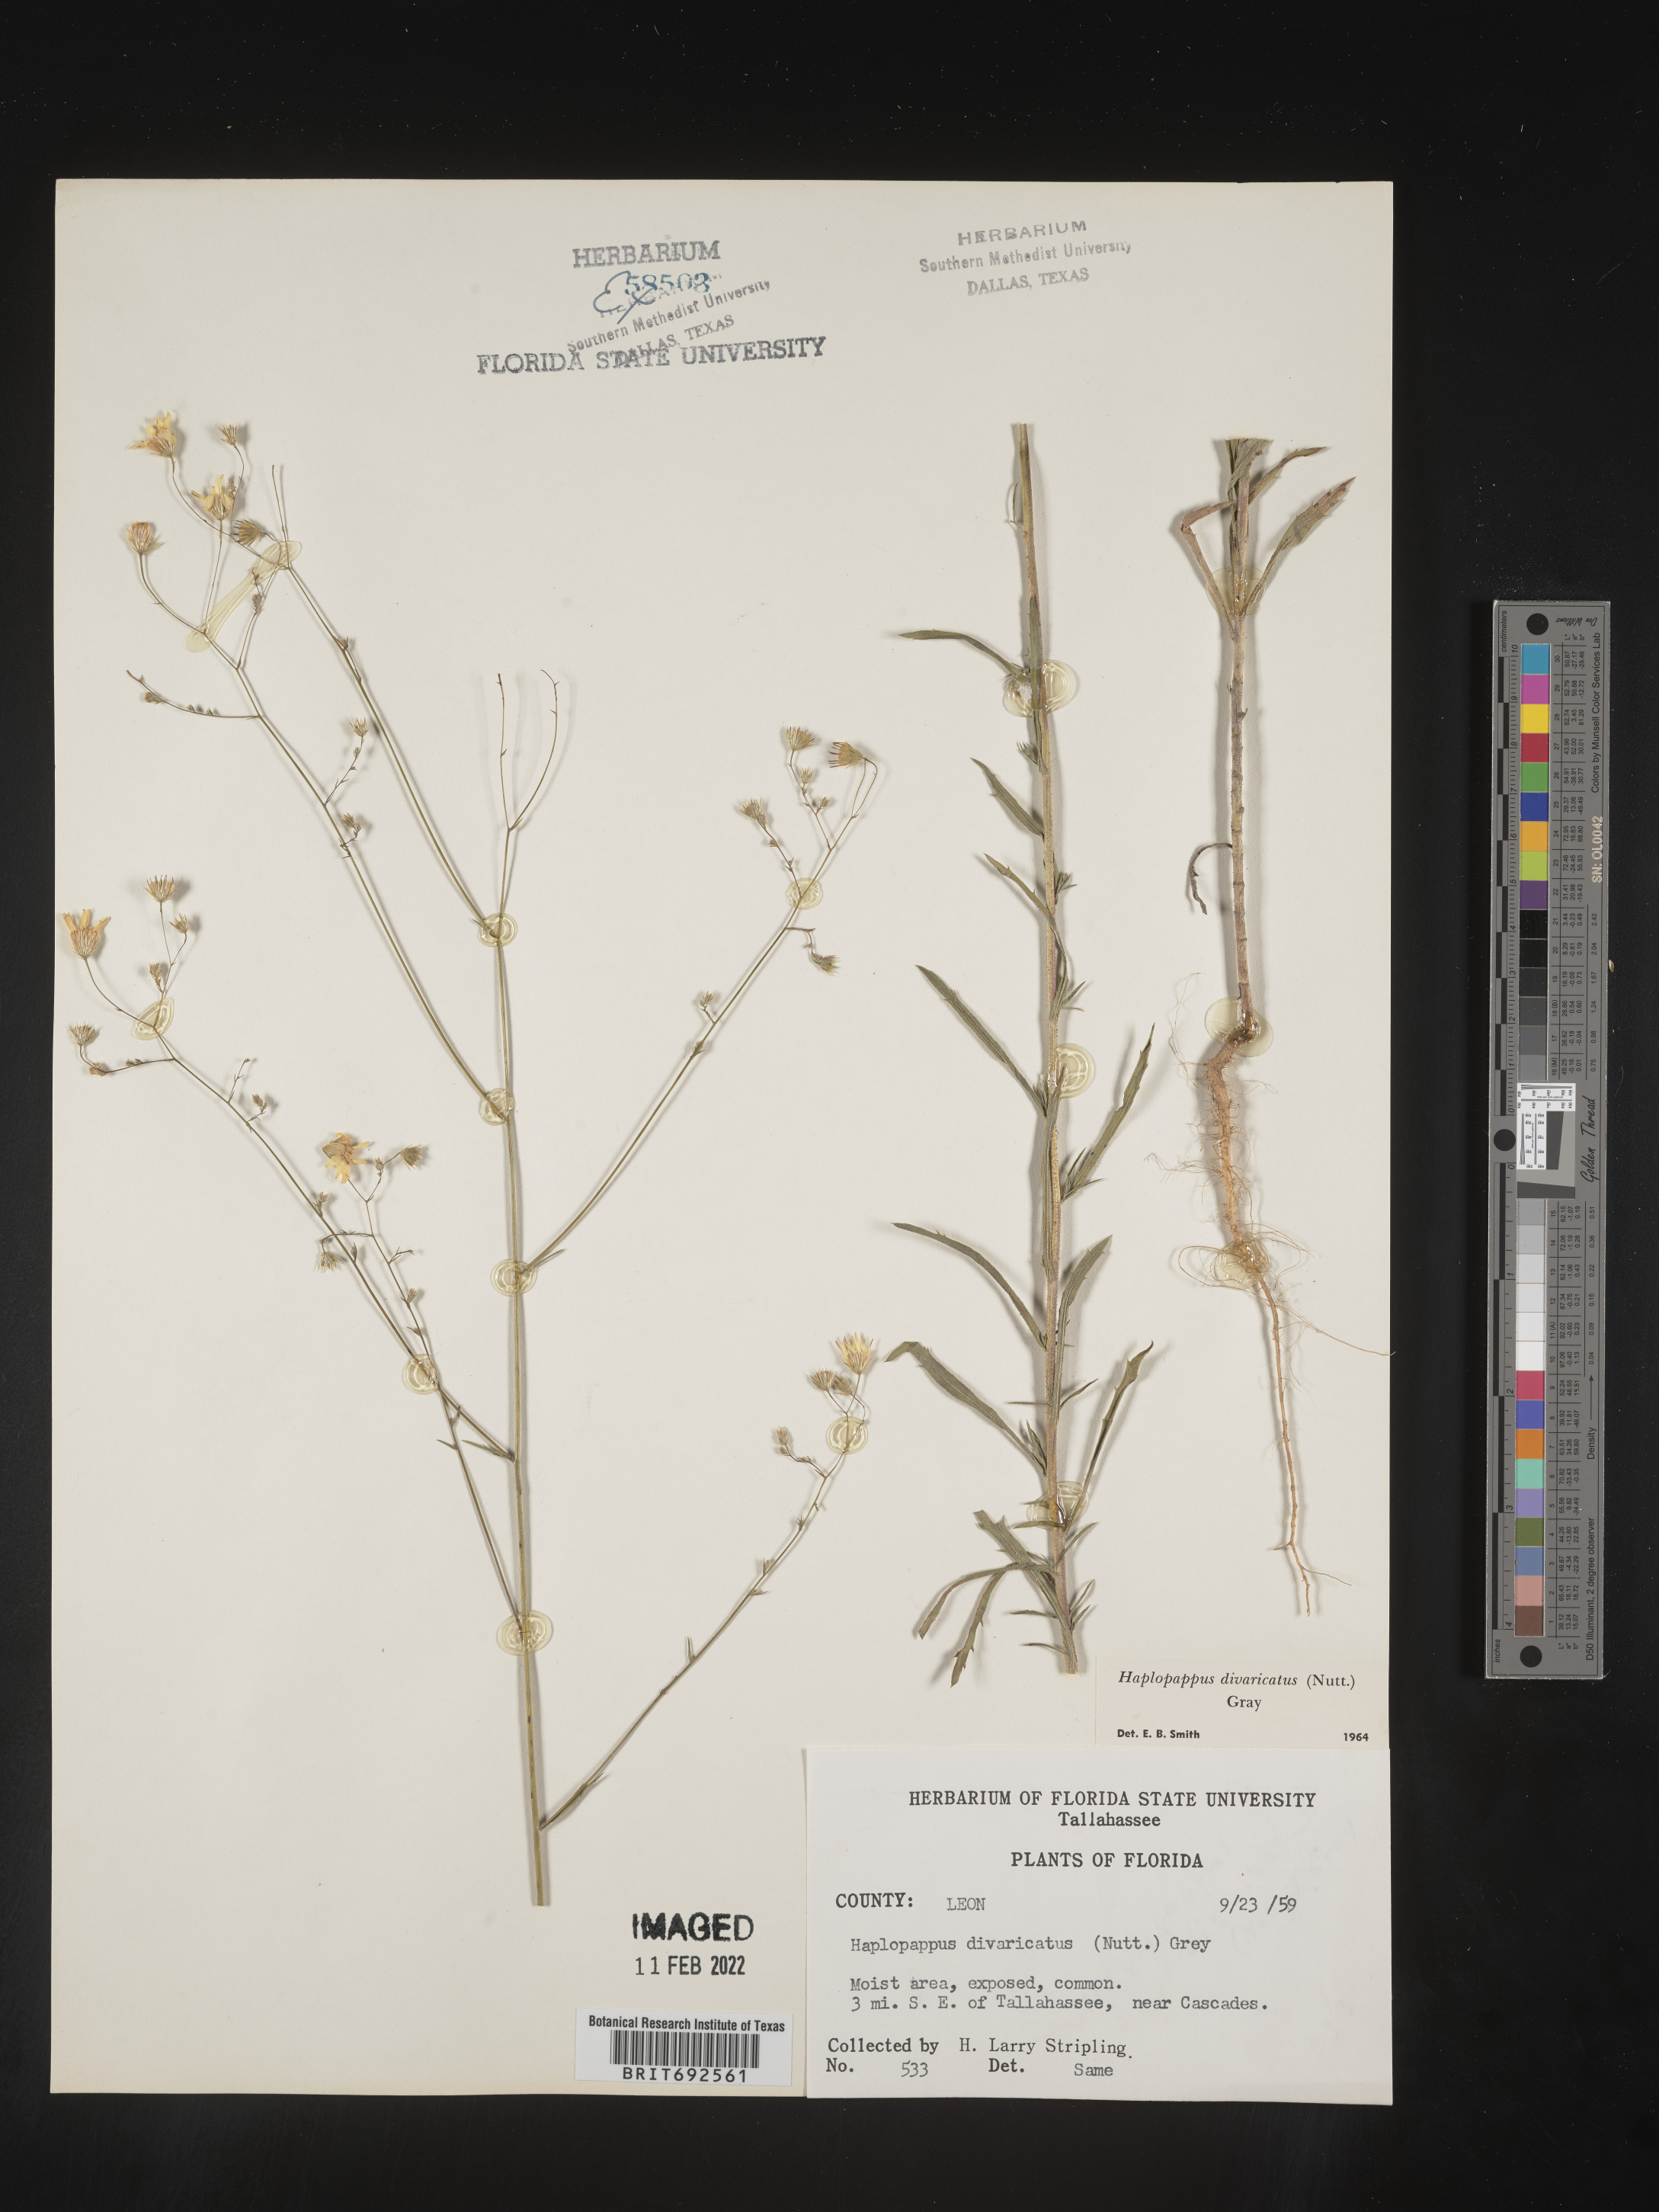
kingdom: Plantae
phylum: Tracheophyta
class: Magnoliopsida
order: Asterales
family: Asteraceae
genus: Croptilon
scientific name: Croptilon divaricatum
